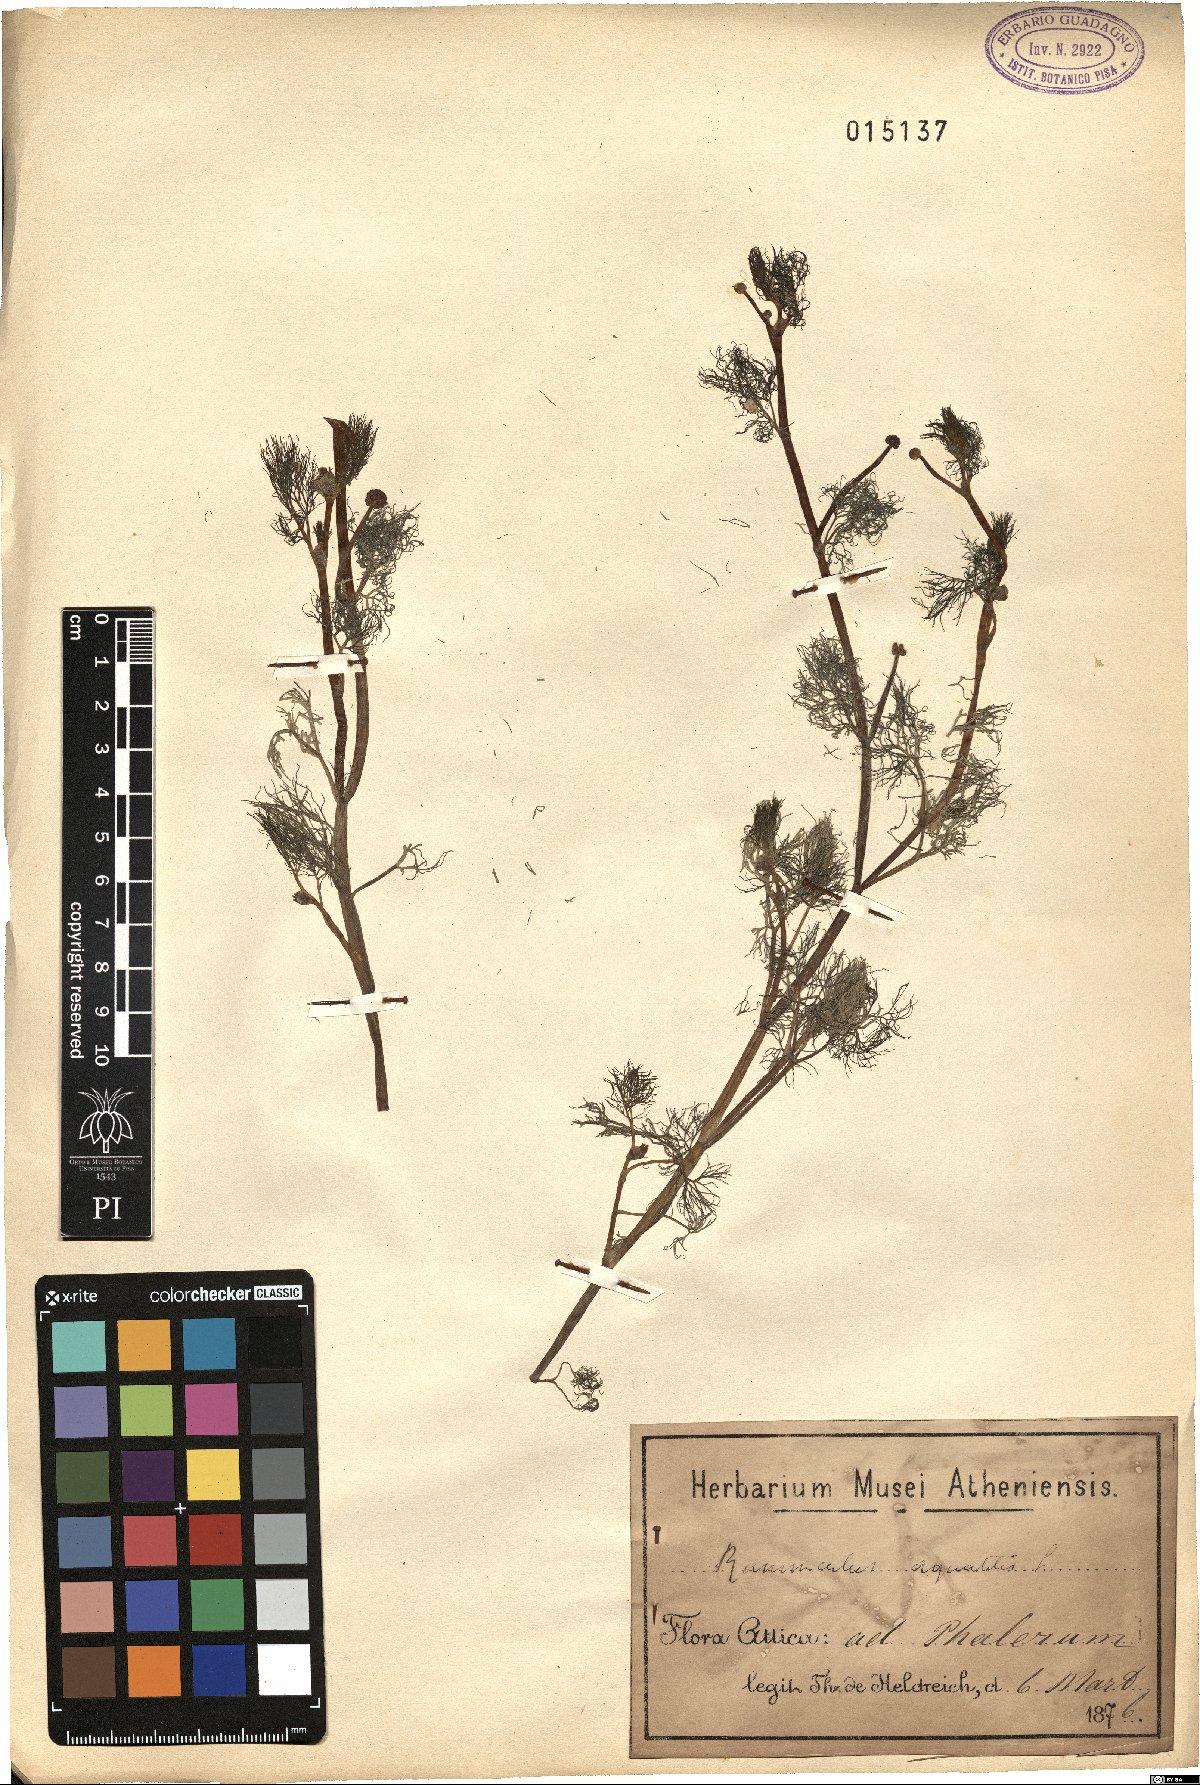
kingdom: Plantae
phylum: Tracheophyta
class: Magnoliopsida
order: Ranunculales
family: Ranunculaceae
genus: Ranunculus
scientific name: Ranunculus aquatilis
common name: Common water-crowfoot
